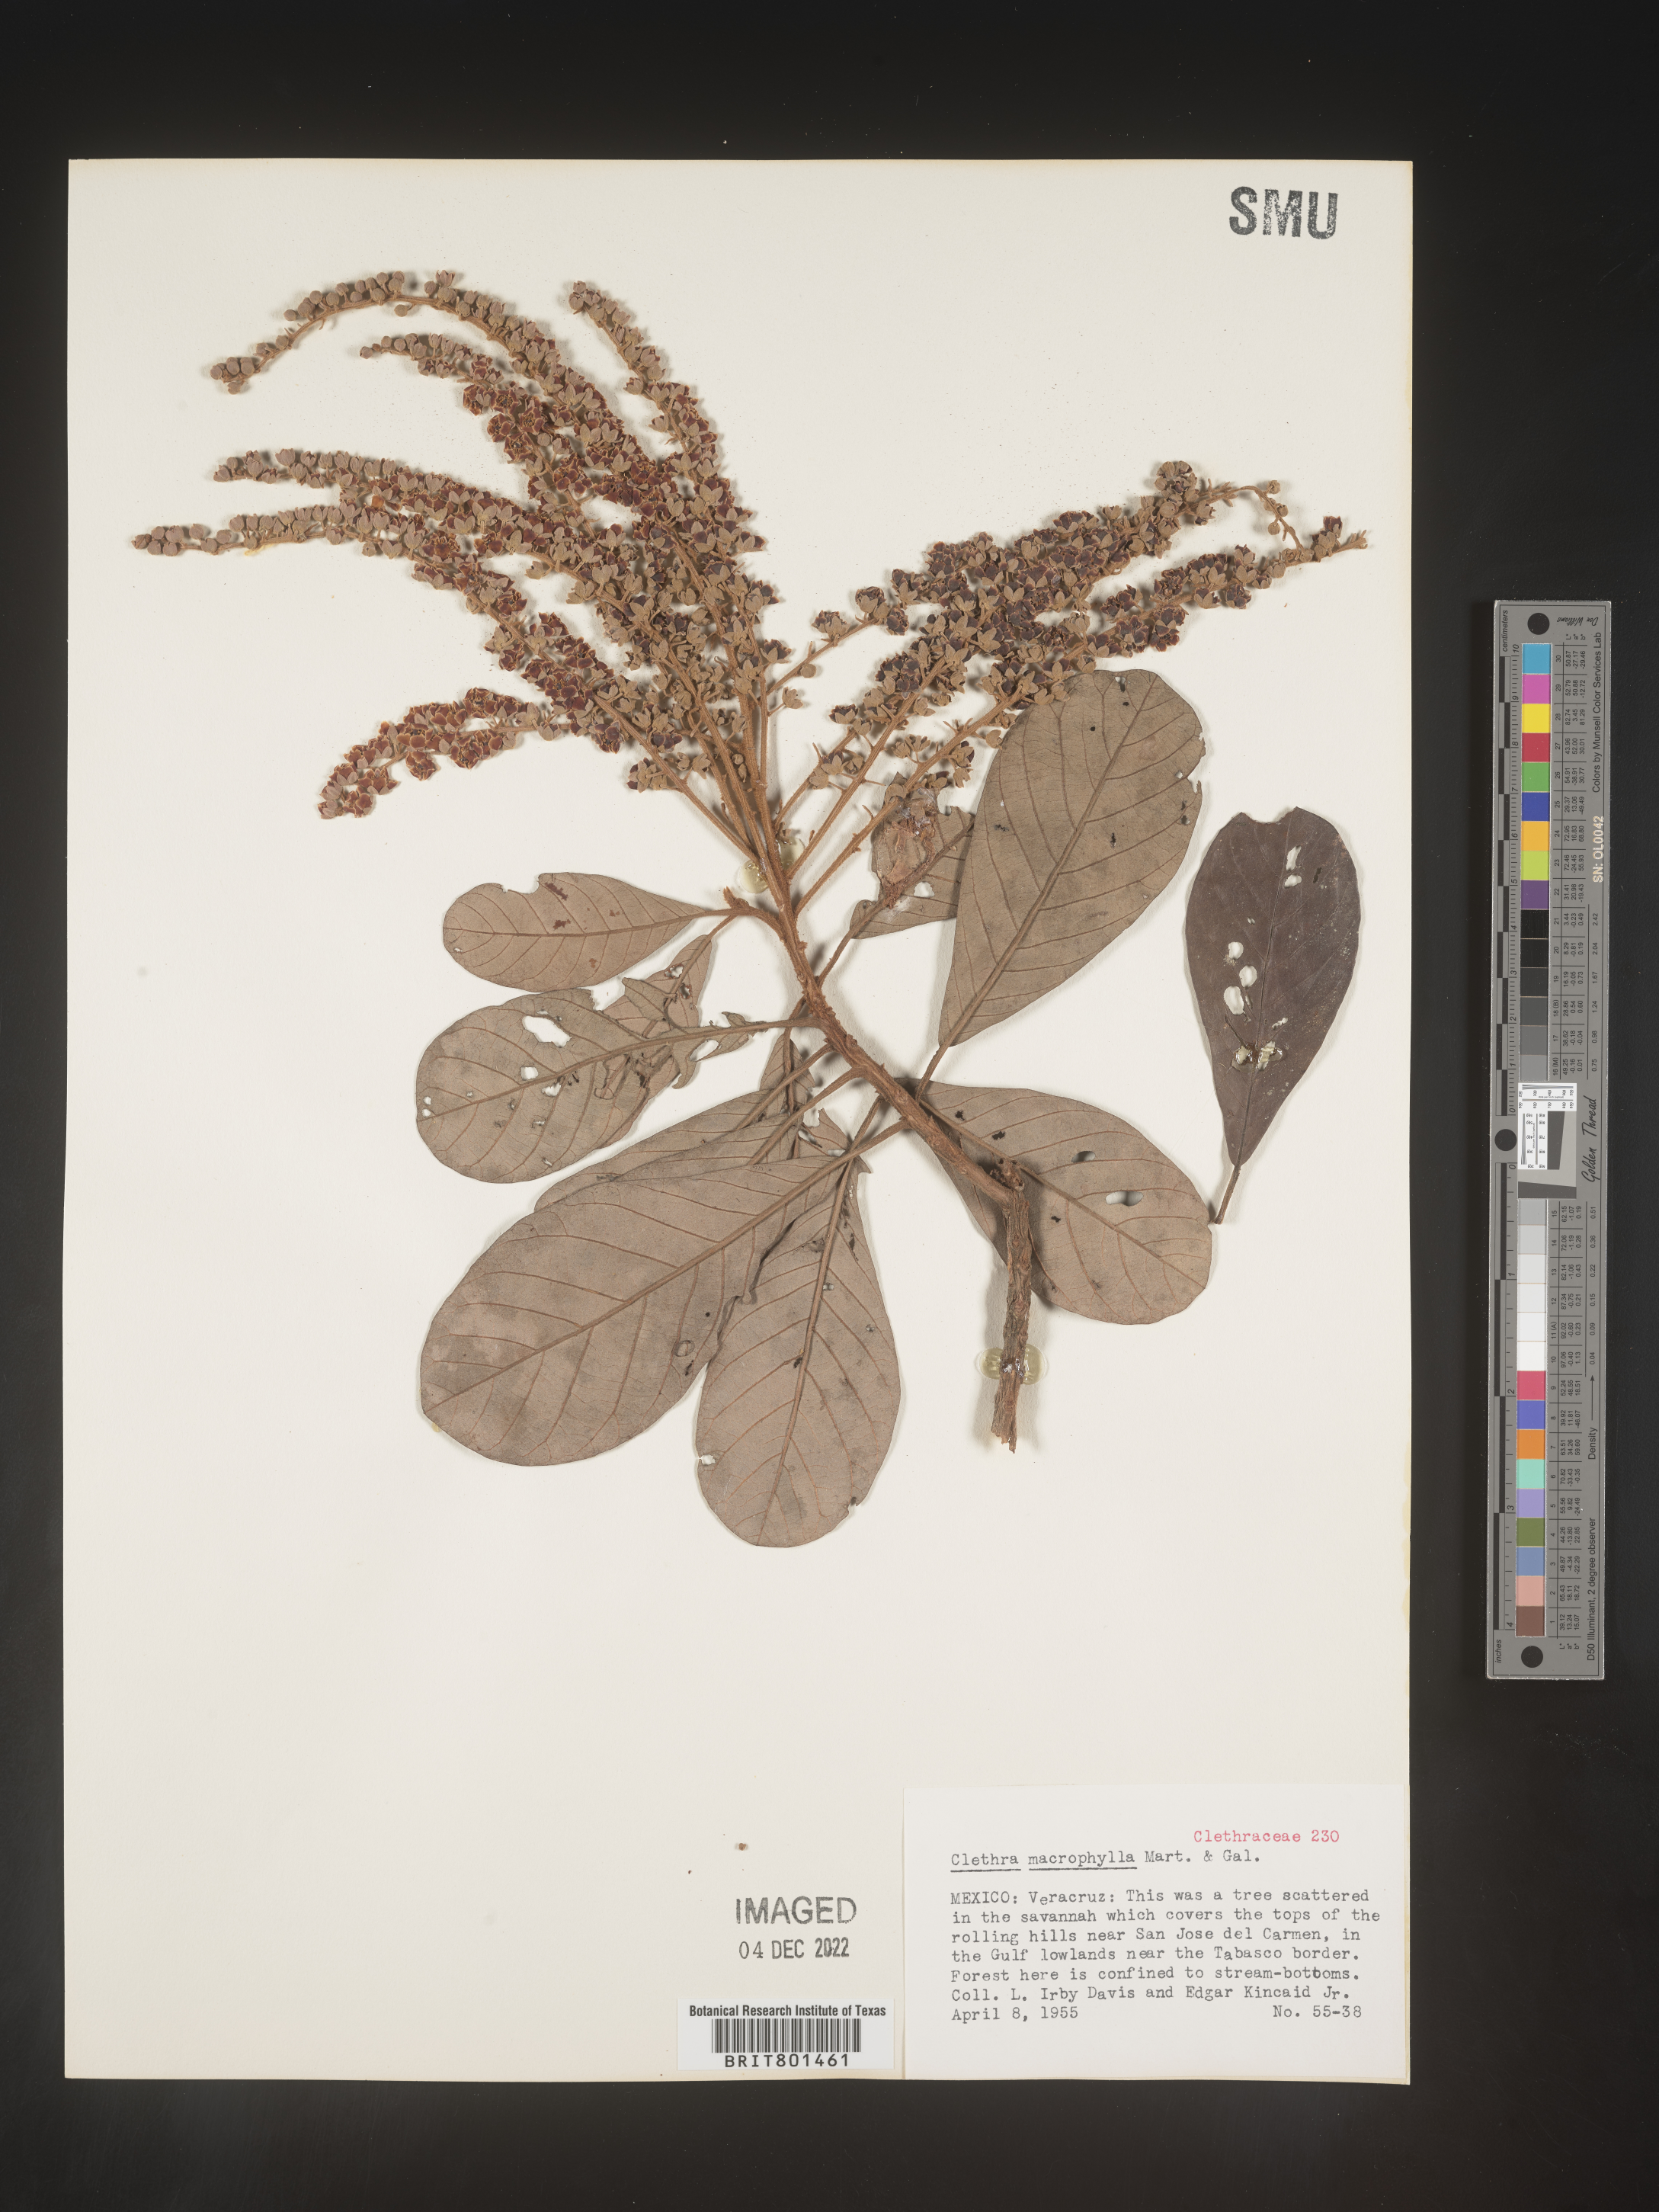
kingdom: Plantae
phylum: Tracheophyta
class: Magnoliopsida
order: Ericales
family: Clethraceae
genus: Clethra
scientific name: Clethra
